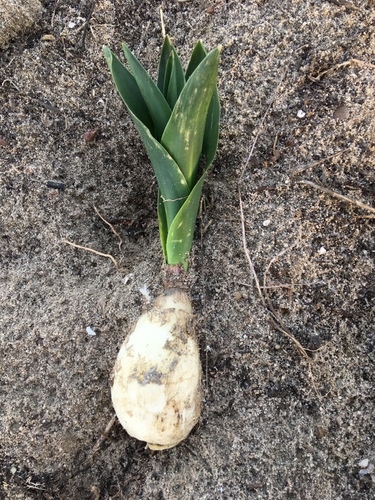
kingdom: Plantae
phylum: Tracheophyta
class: Liliopsida
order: Asparagales
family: Asparagaceae
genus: Drimia
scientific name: Drimia maritima
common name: Maritime squill
